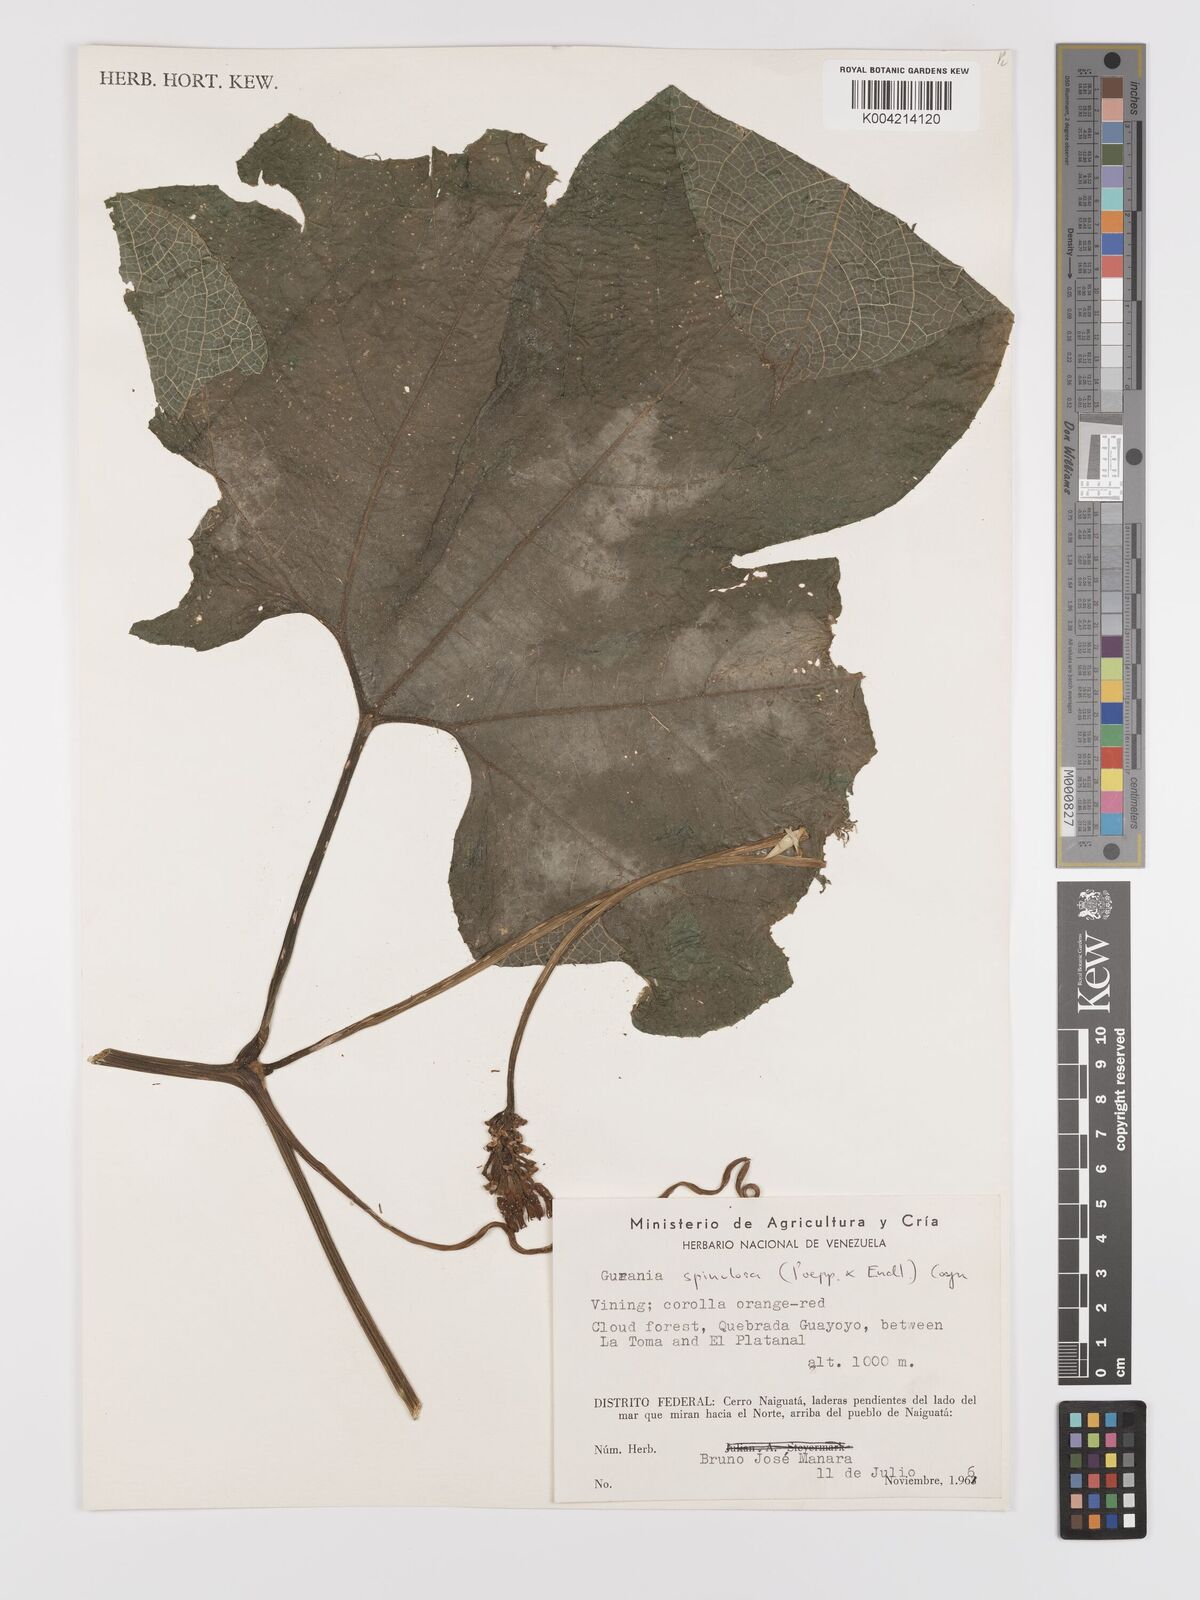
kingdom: Plantae
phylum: Tracheophyta
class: Magnoliopsida
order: Cucurbitales
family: Cucurbitaceae
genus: Gurania
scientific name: Gurania lobata
